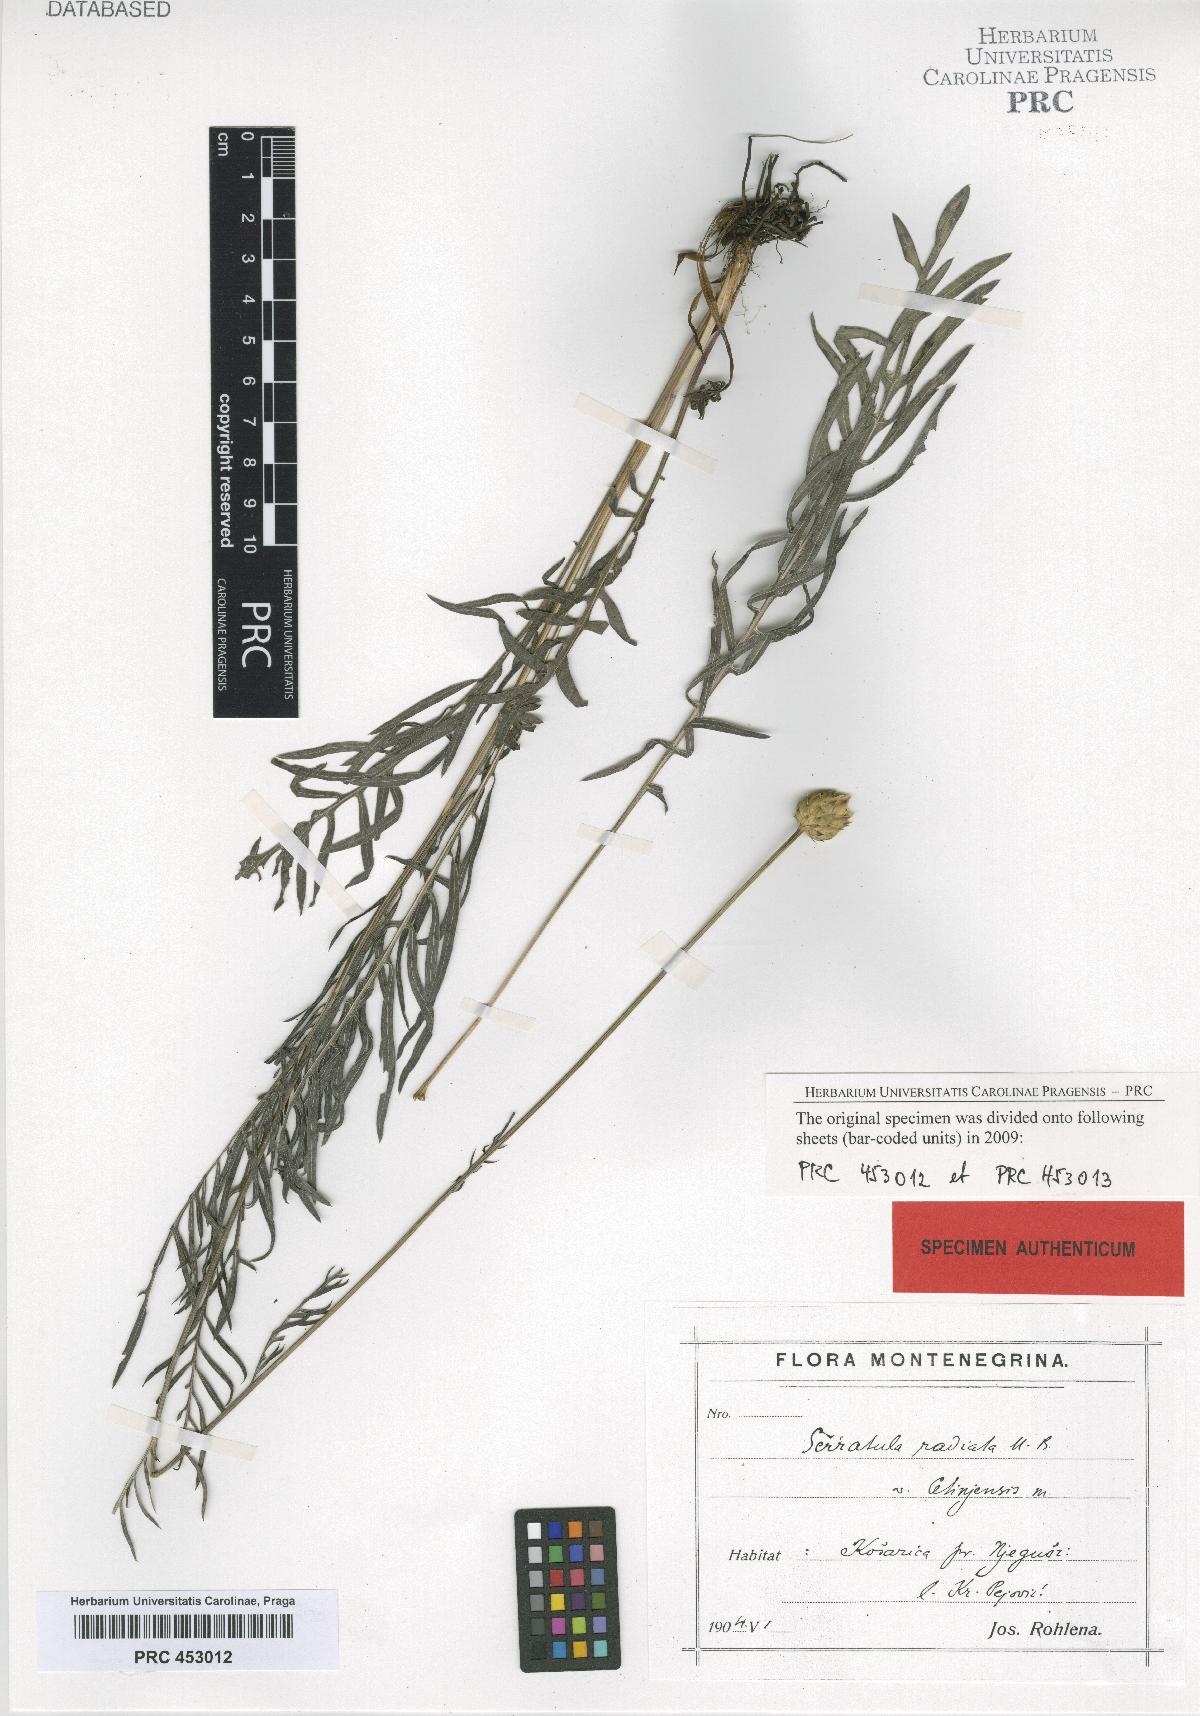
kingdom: Plantae
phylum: Tracheophyta
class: Magnoliopsida
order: Asterales
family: Asteraceae
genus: Klasea
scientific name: Klasea radiata
